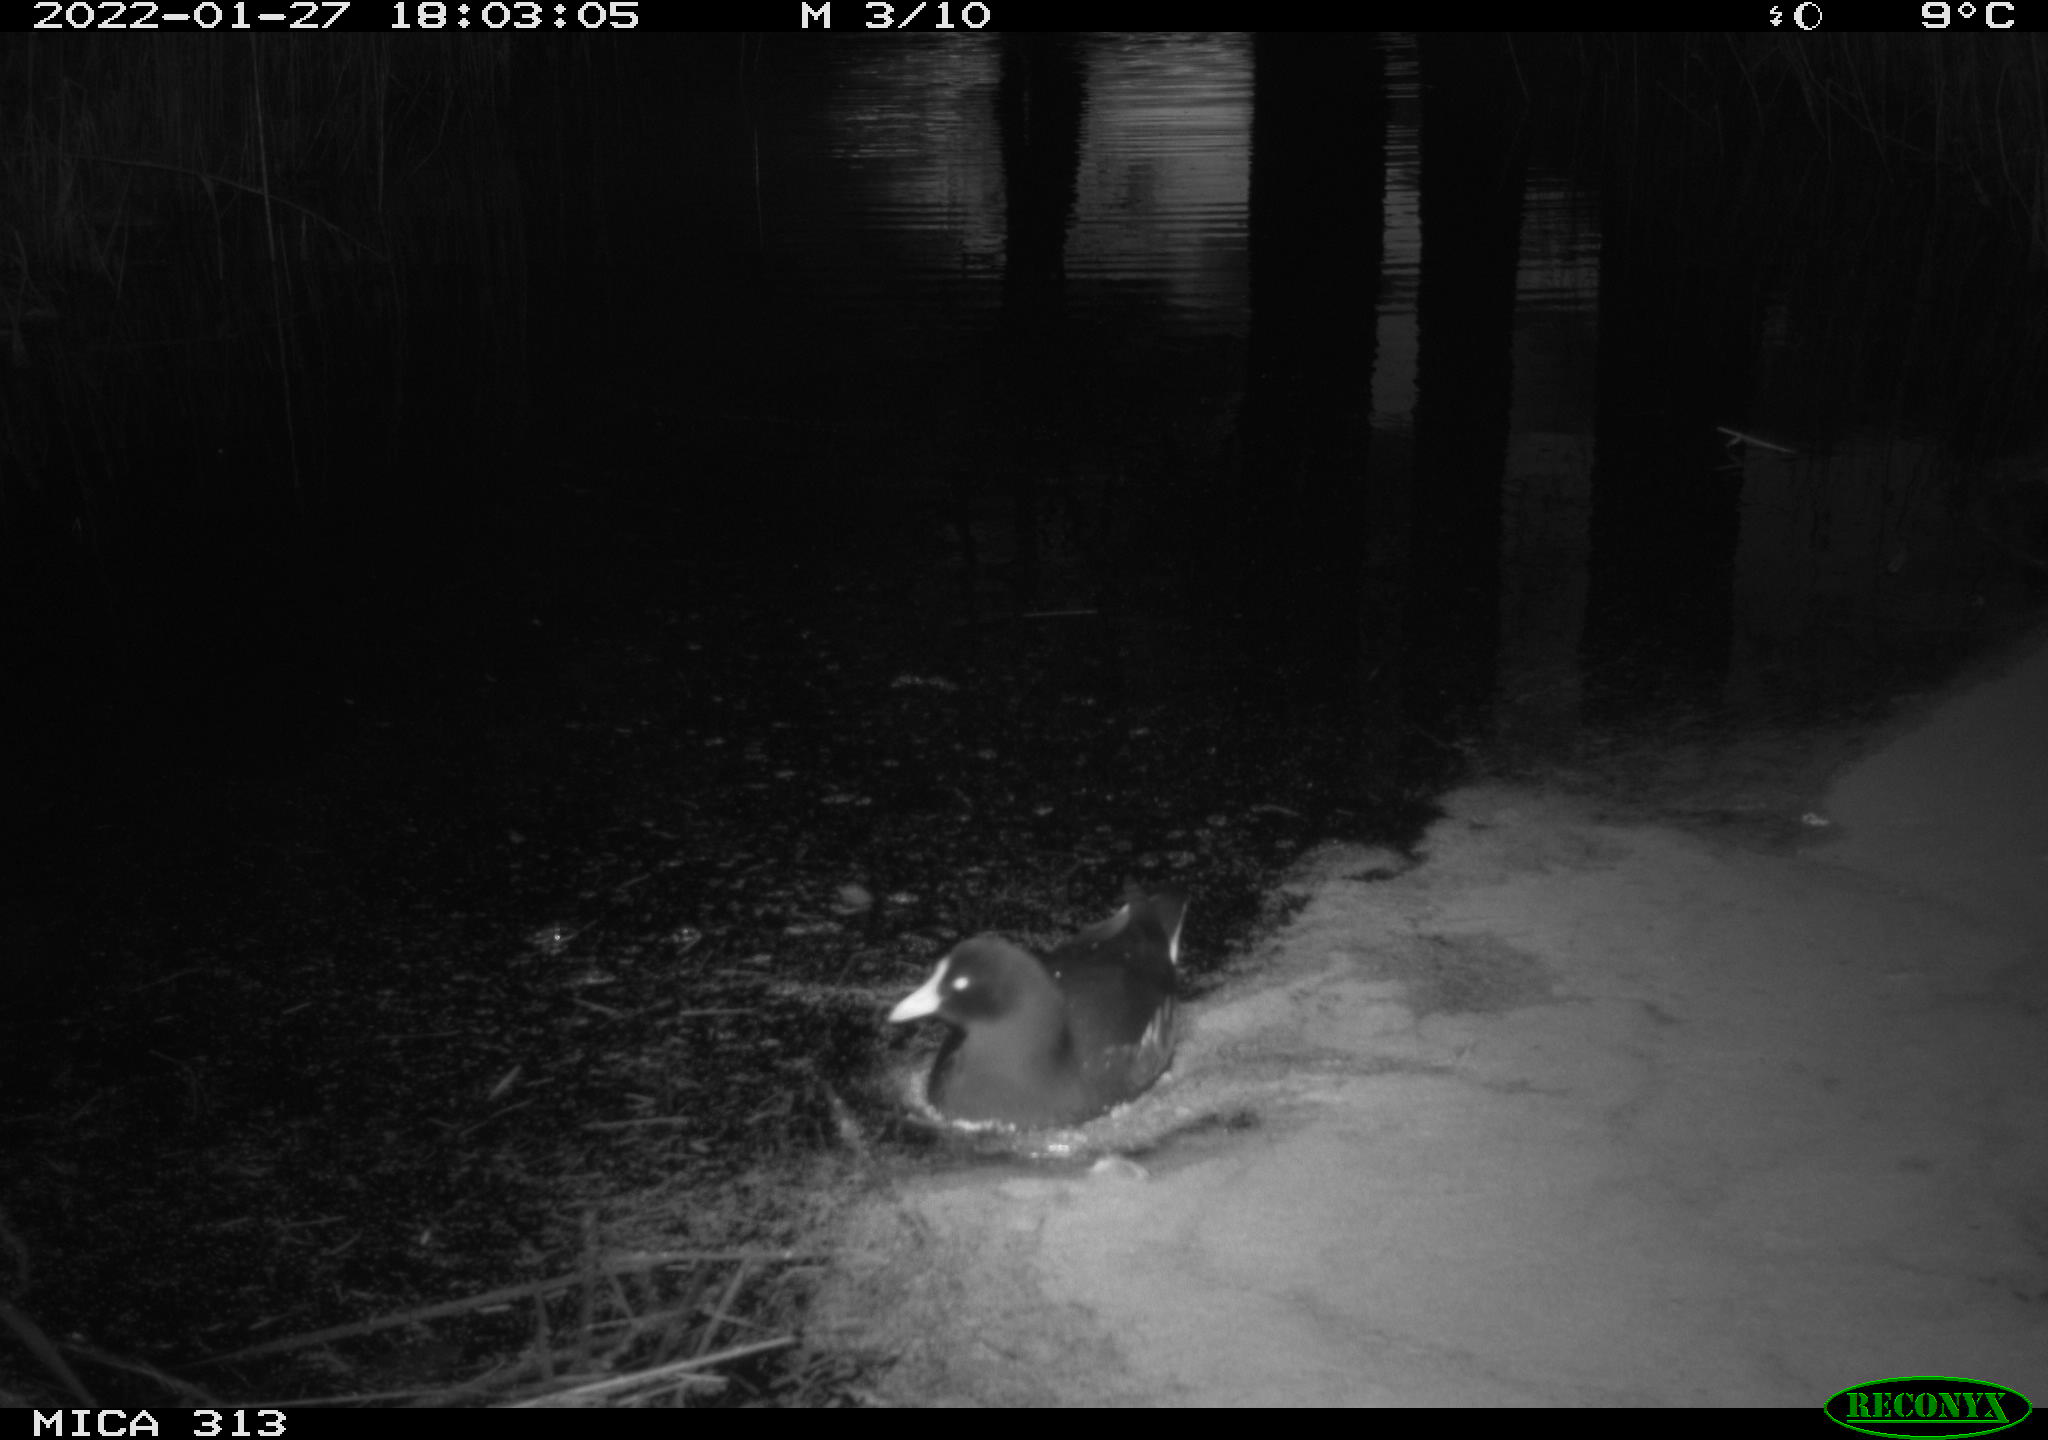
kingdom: Animalia
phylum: Chordata
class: Aves
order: Gruiformes
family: Rallidae
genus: Fulica
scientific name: Fulica atra
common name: Eurasian coot
